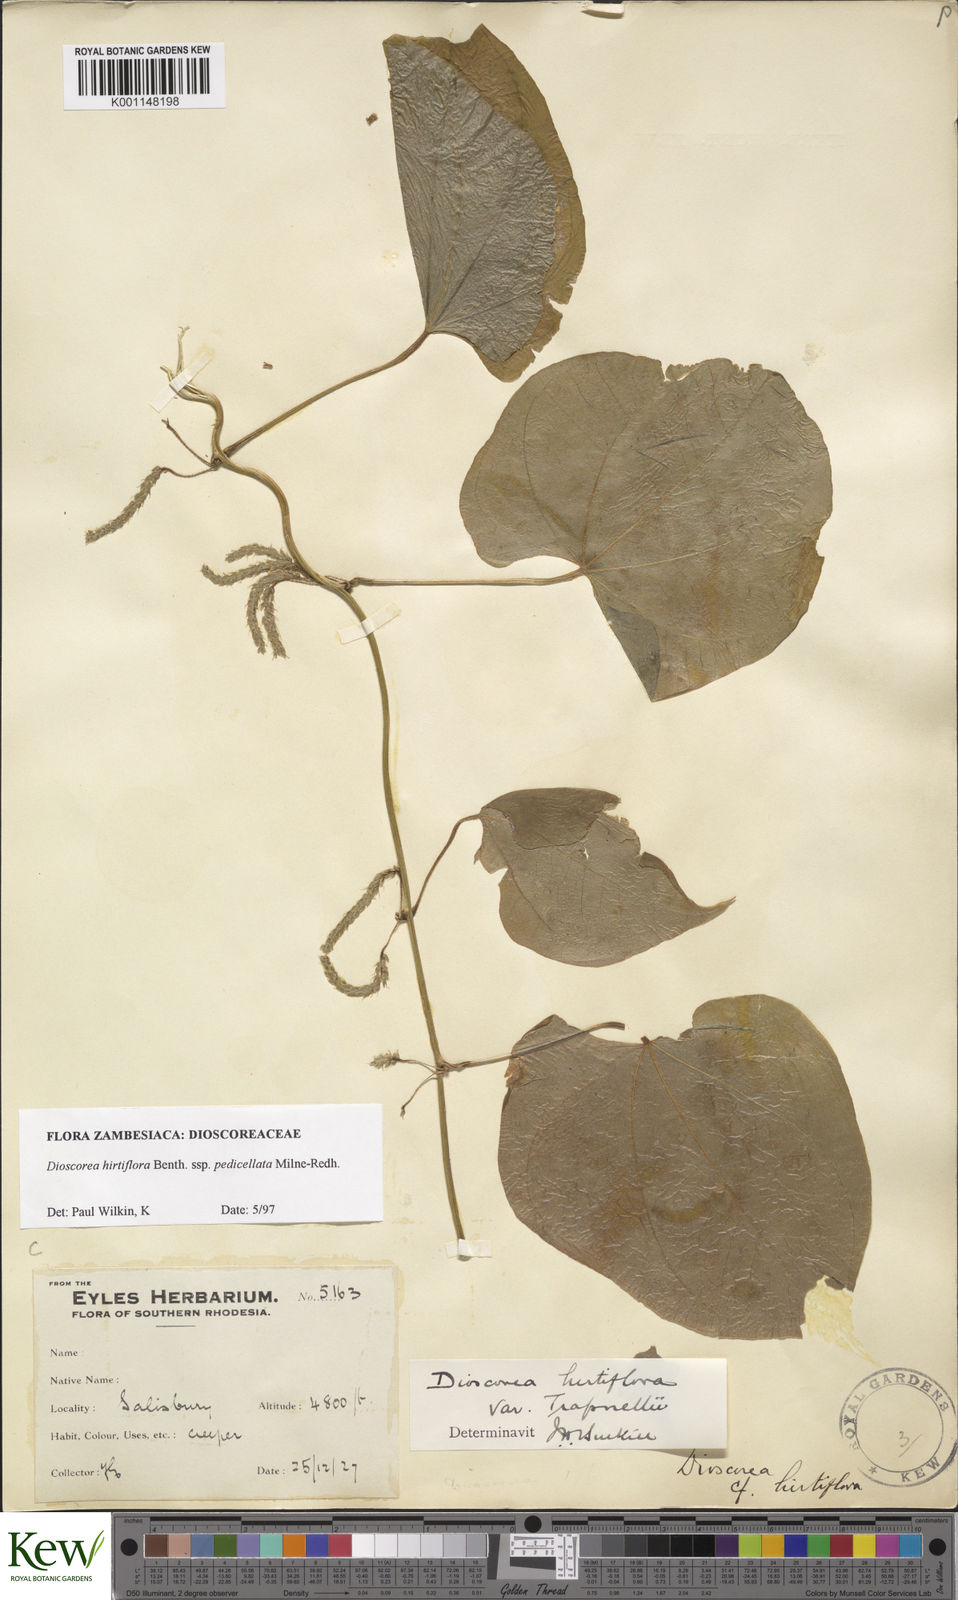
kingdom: Plantae
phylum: Tracheophyta
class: Liliopsida
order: Dioscoreales
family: Dioscoreaceae
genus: Dioscorea
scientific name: Dioscorea hirtiflora
